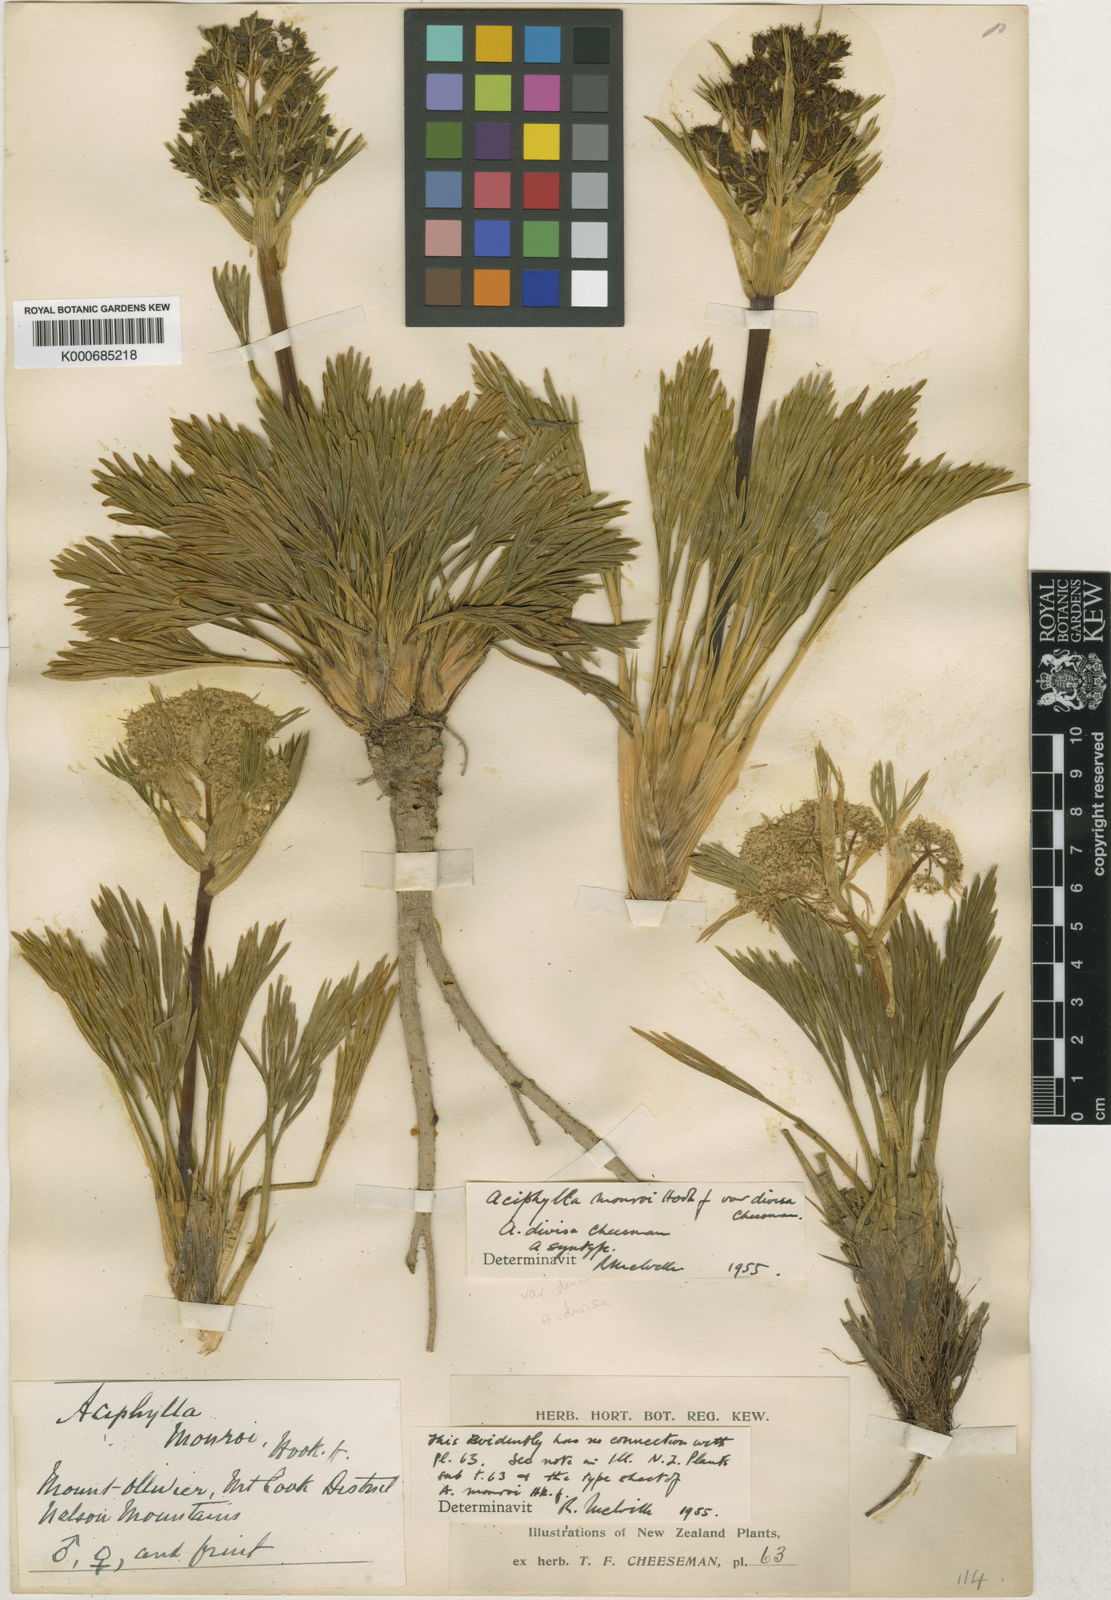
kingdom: Plantae
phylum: Tracheophyta
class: Magnoliopsida
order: Apiales
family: Apiaceae
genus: Aciphylla
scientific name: Aciphylla divisa
